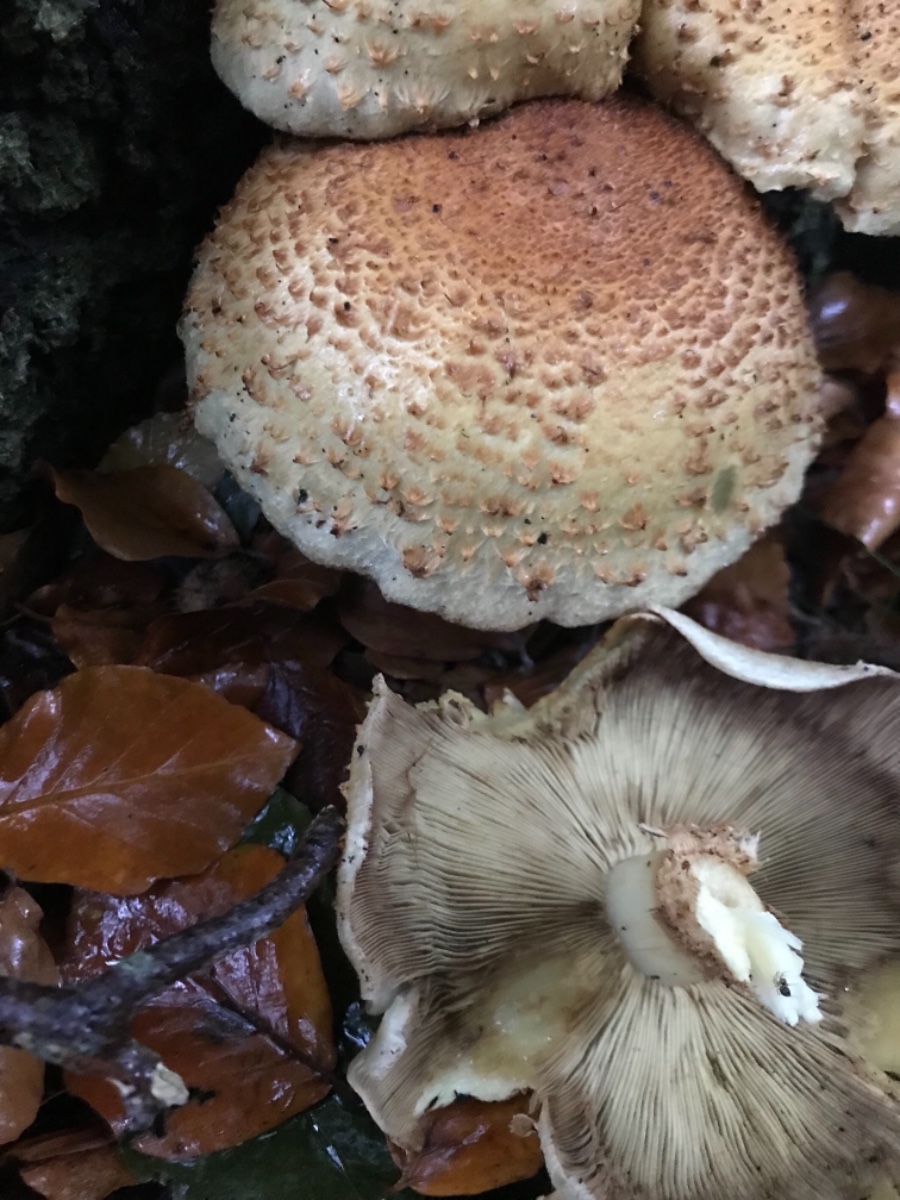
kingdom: Fungi
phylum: Basidiomycota
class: Agaricomycetes
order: Agaricales
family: Strophariaceae
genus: Pholiota
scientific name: Pholiota squarrosa
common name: krumskællet skælhat
